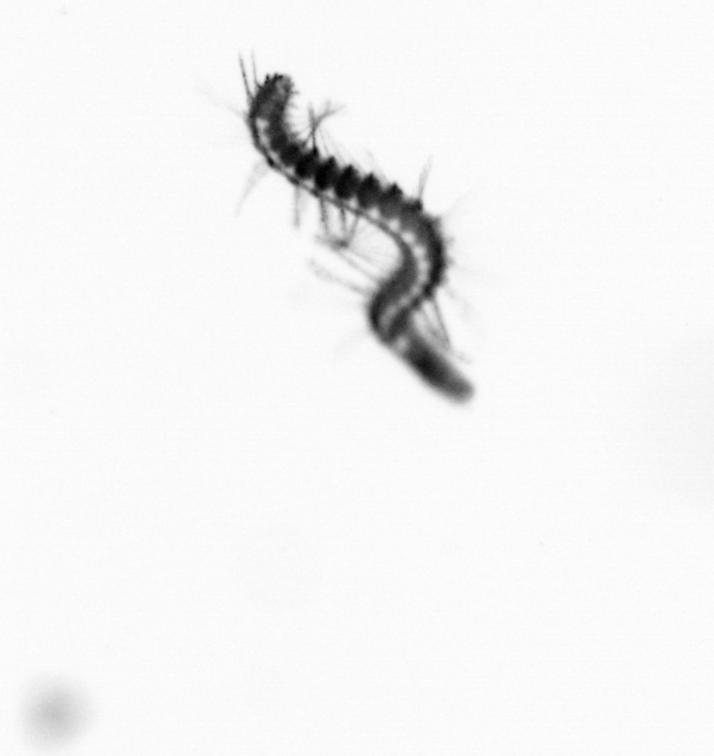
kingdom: Animalia
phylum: Annelida
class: Polychaeta
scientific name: Polychaeta
